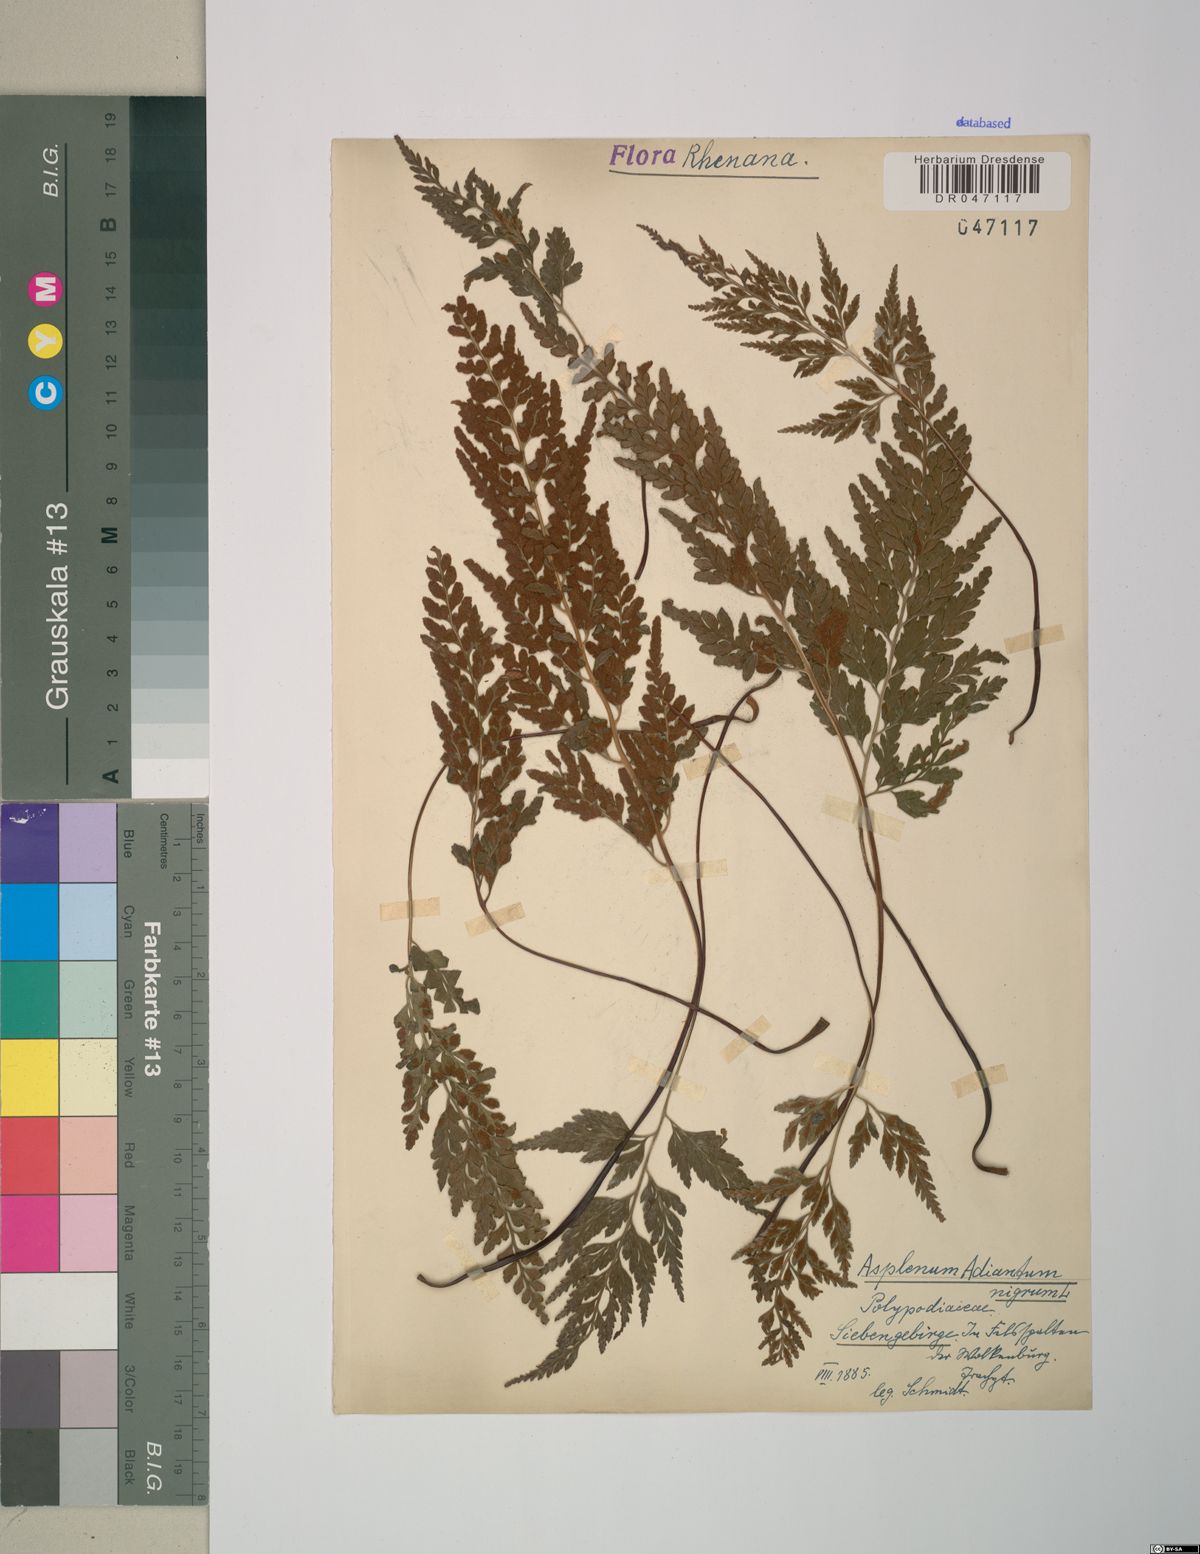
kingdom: Plantae
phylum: Tracheophyta
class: Polypodiopsida
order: Polypodiales
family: Aspleniaceae
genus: Asplenium
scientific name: Asplenium adiantum-nigrum
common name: Black spleenwort
